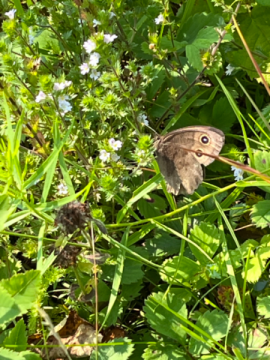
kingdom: Animalia
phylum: Arthropoda
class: Insecta
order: Lepidoptera
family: Nymphalidae
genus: Cercyonis
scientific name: Cercyonis pegala
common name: Common Wood-Nymph
